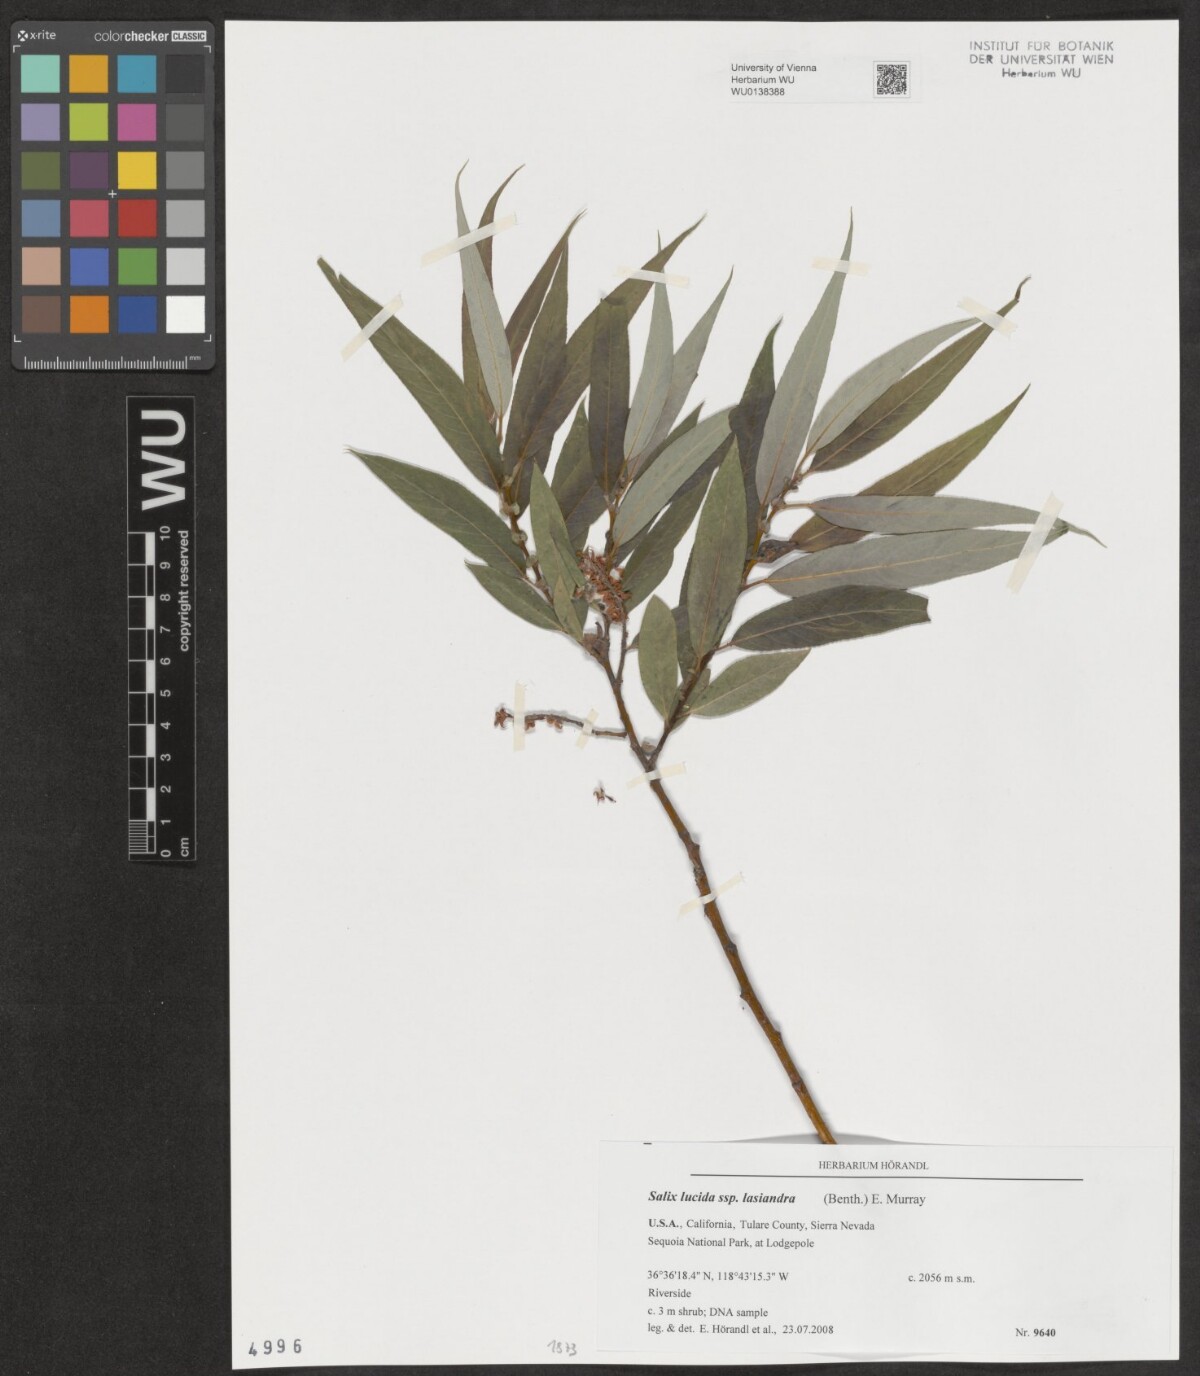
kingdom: Plantae
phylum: Tracheophyta
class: Magnoliopsida
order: Malpighiales
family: Salicaceae
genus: Salix
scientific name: Salix lucida
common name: Shining willow
